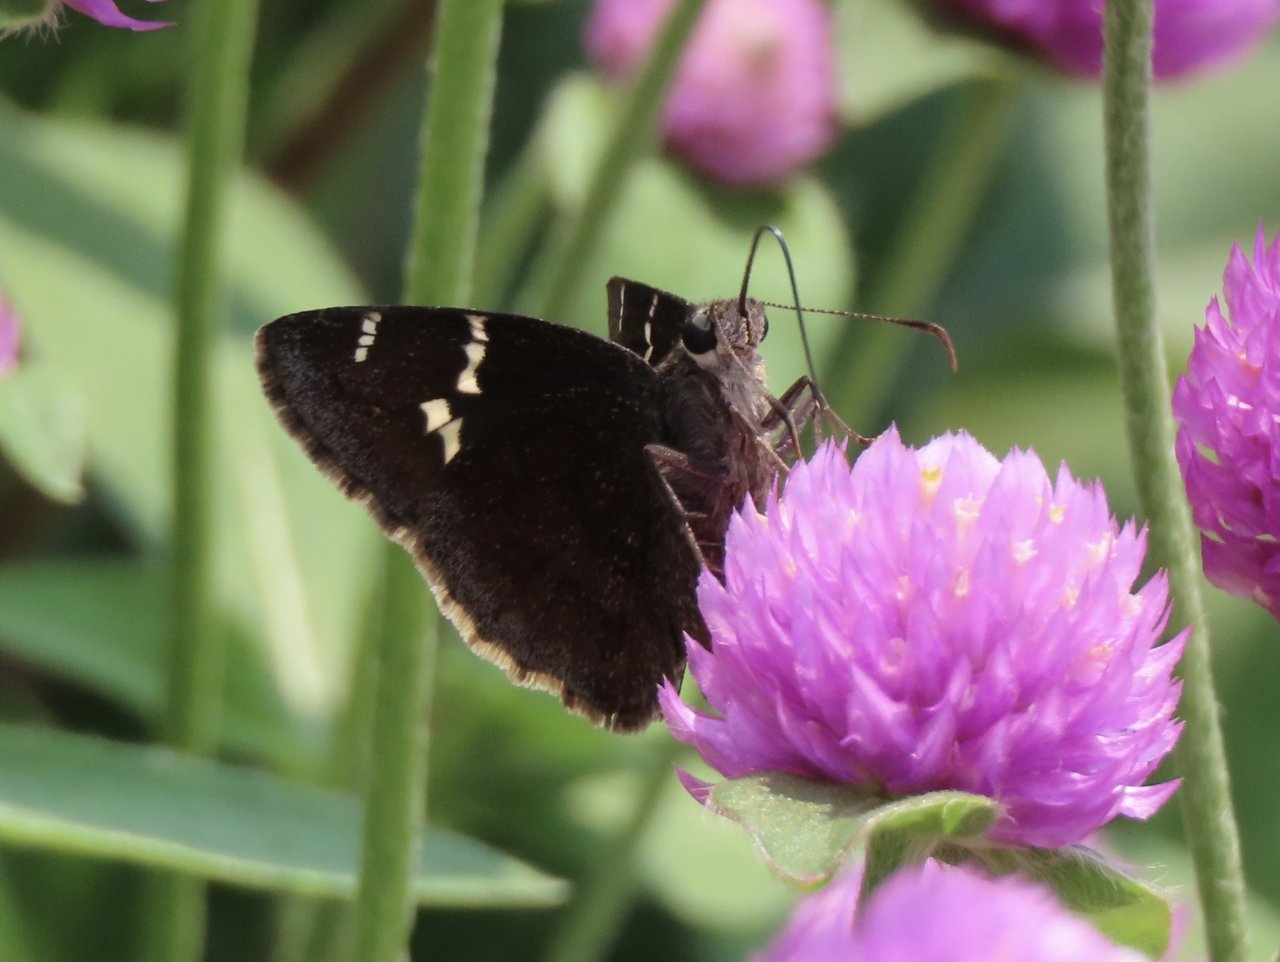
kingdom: Animalia
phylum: Arthropoda
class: Insecta
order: Lepidoptera
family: Hesperiidae
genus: Autochton
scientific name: Autochton
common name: Southern Cloudywing
